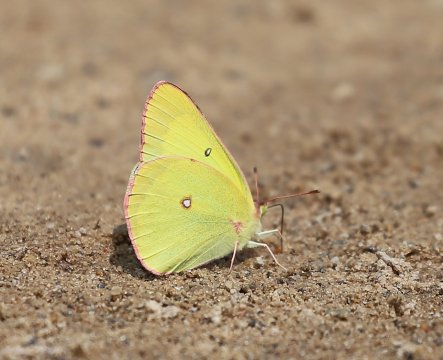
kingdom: Animalia
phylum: Arthropoda
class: Insecta
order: Lepidoptera
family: Pieridae
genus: Colias
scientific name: Colias interior
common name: Pink-edged Sulphur
